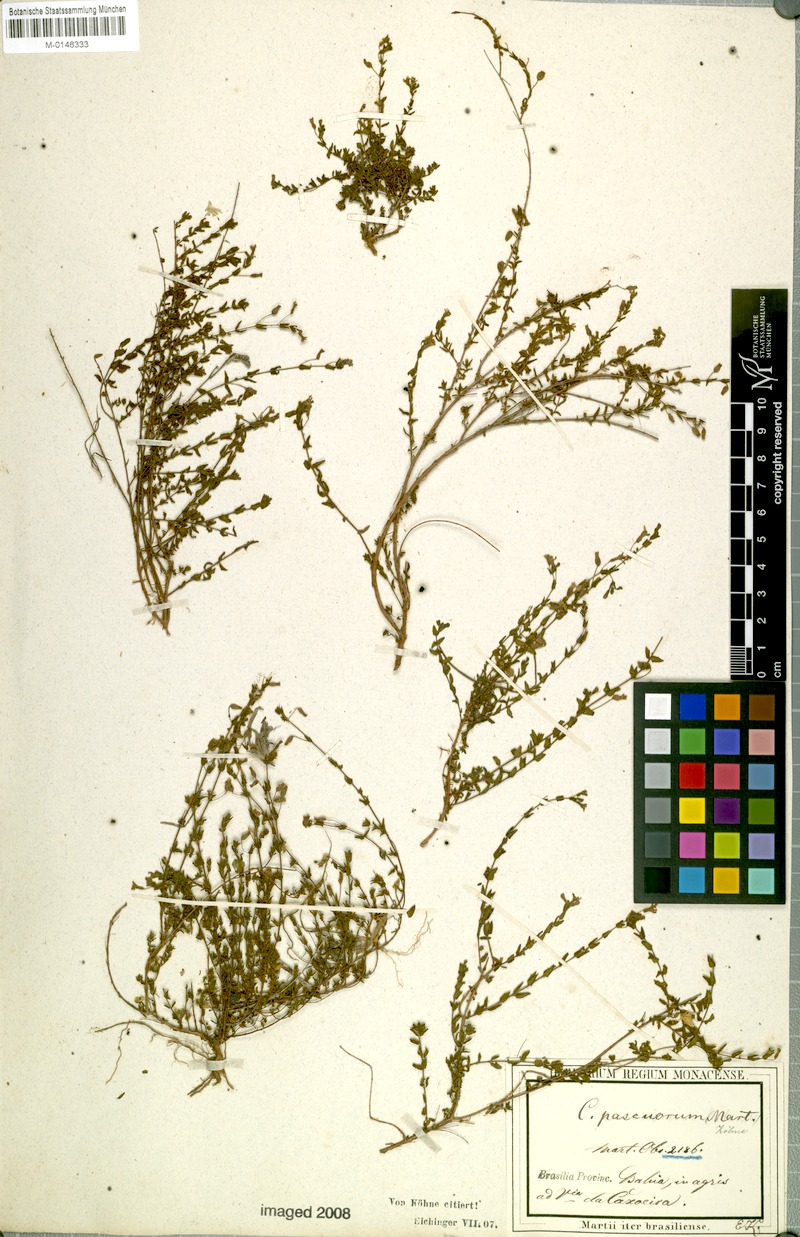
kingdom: Plantae
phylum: Tracheophyta
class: Magnoliopsida
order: Myrtales
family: Lythraceae
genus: Cuphea
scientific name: Cuphea pascuorum
